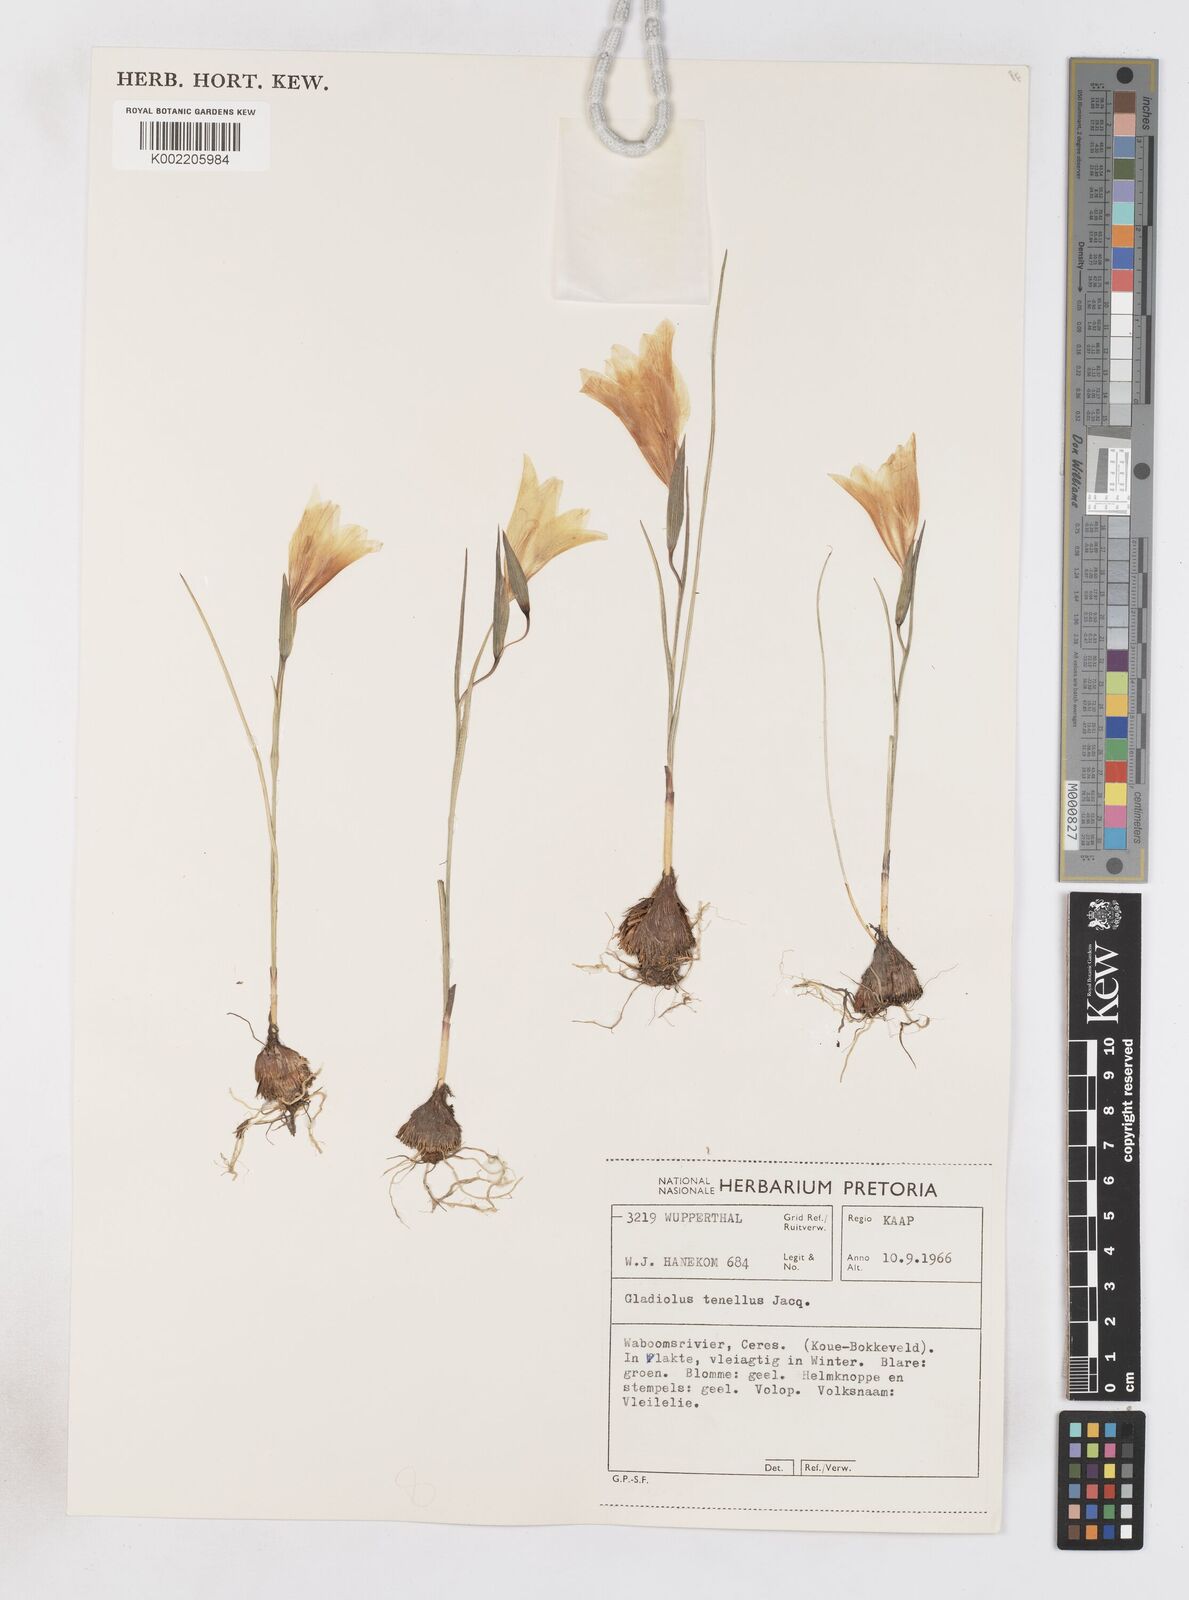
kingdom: Plantae
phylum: Tracheophyta
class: Liliopsida
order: Asparagales
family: Iridaceae
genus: Gladiolus
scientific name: Gladiolus carinatus
